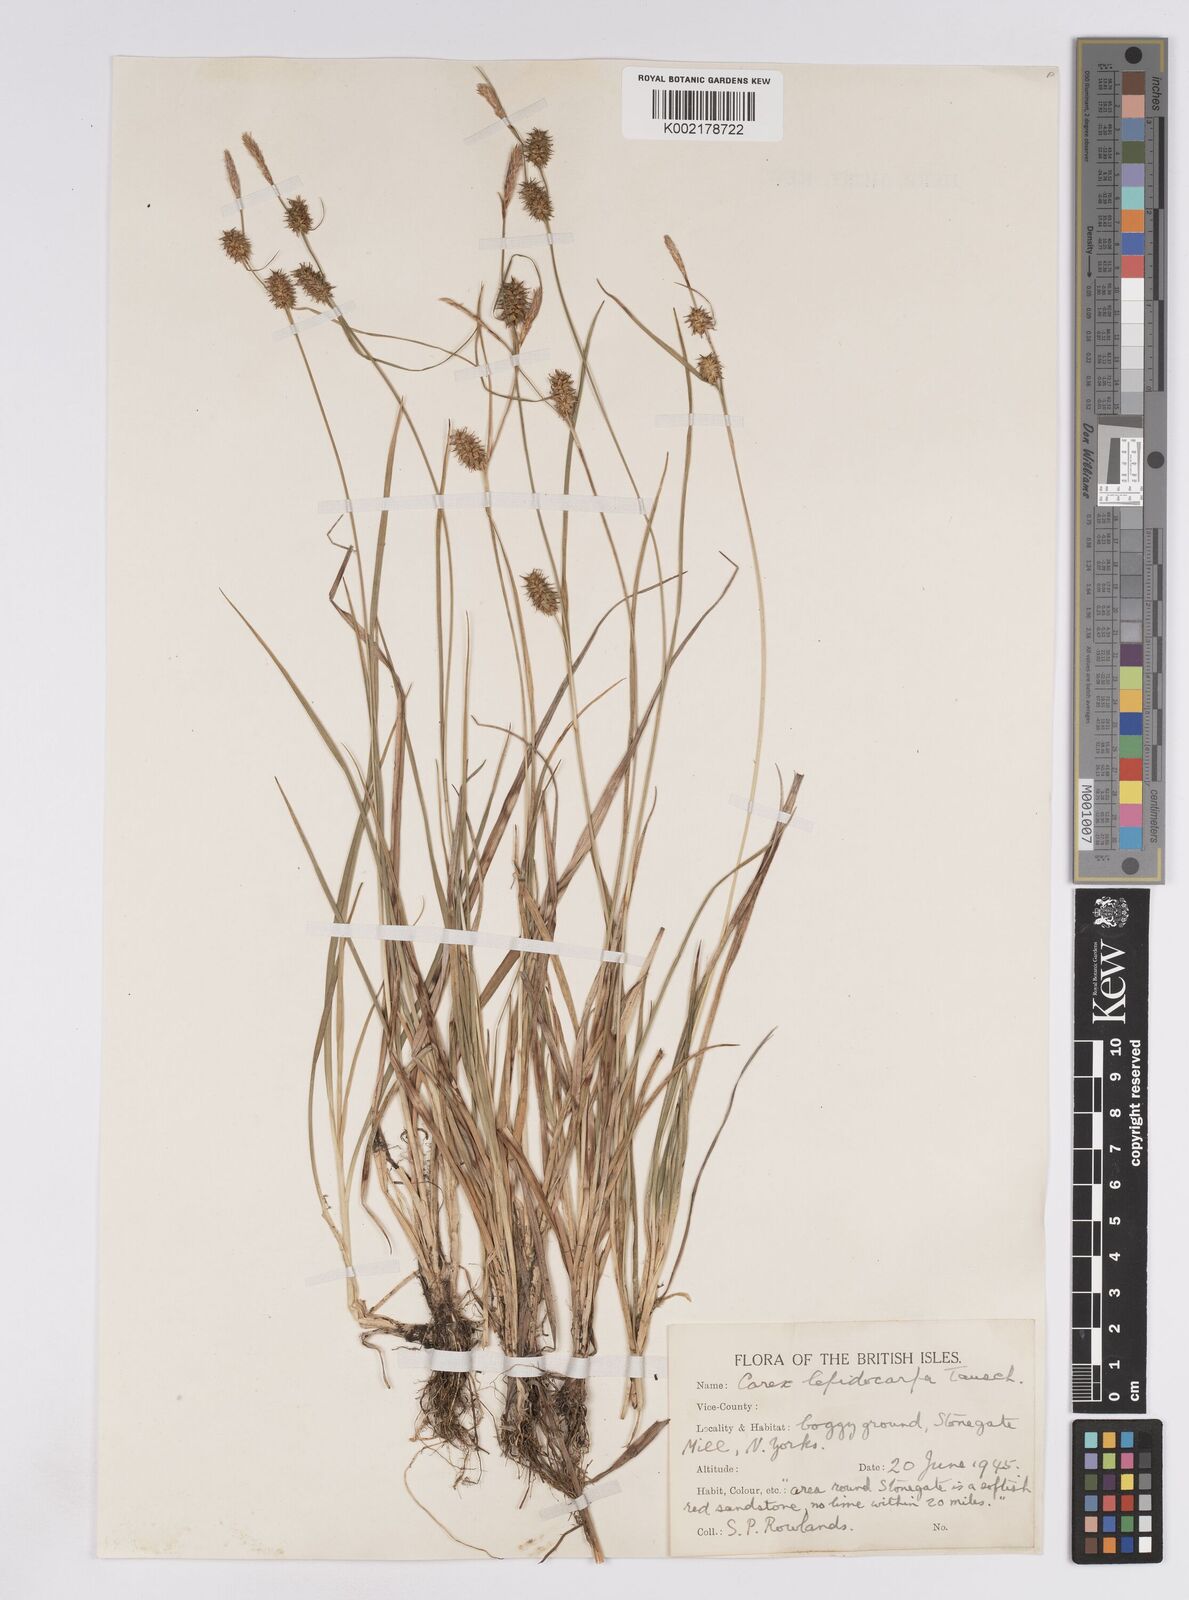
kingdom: Plantae
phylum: Tracheophyta
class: Liliopsida
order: Poales
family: Cyperaceae
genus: Carex
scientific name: Carex lepidocarpa
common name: Long-stalked yellow-sedge
